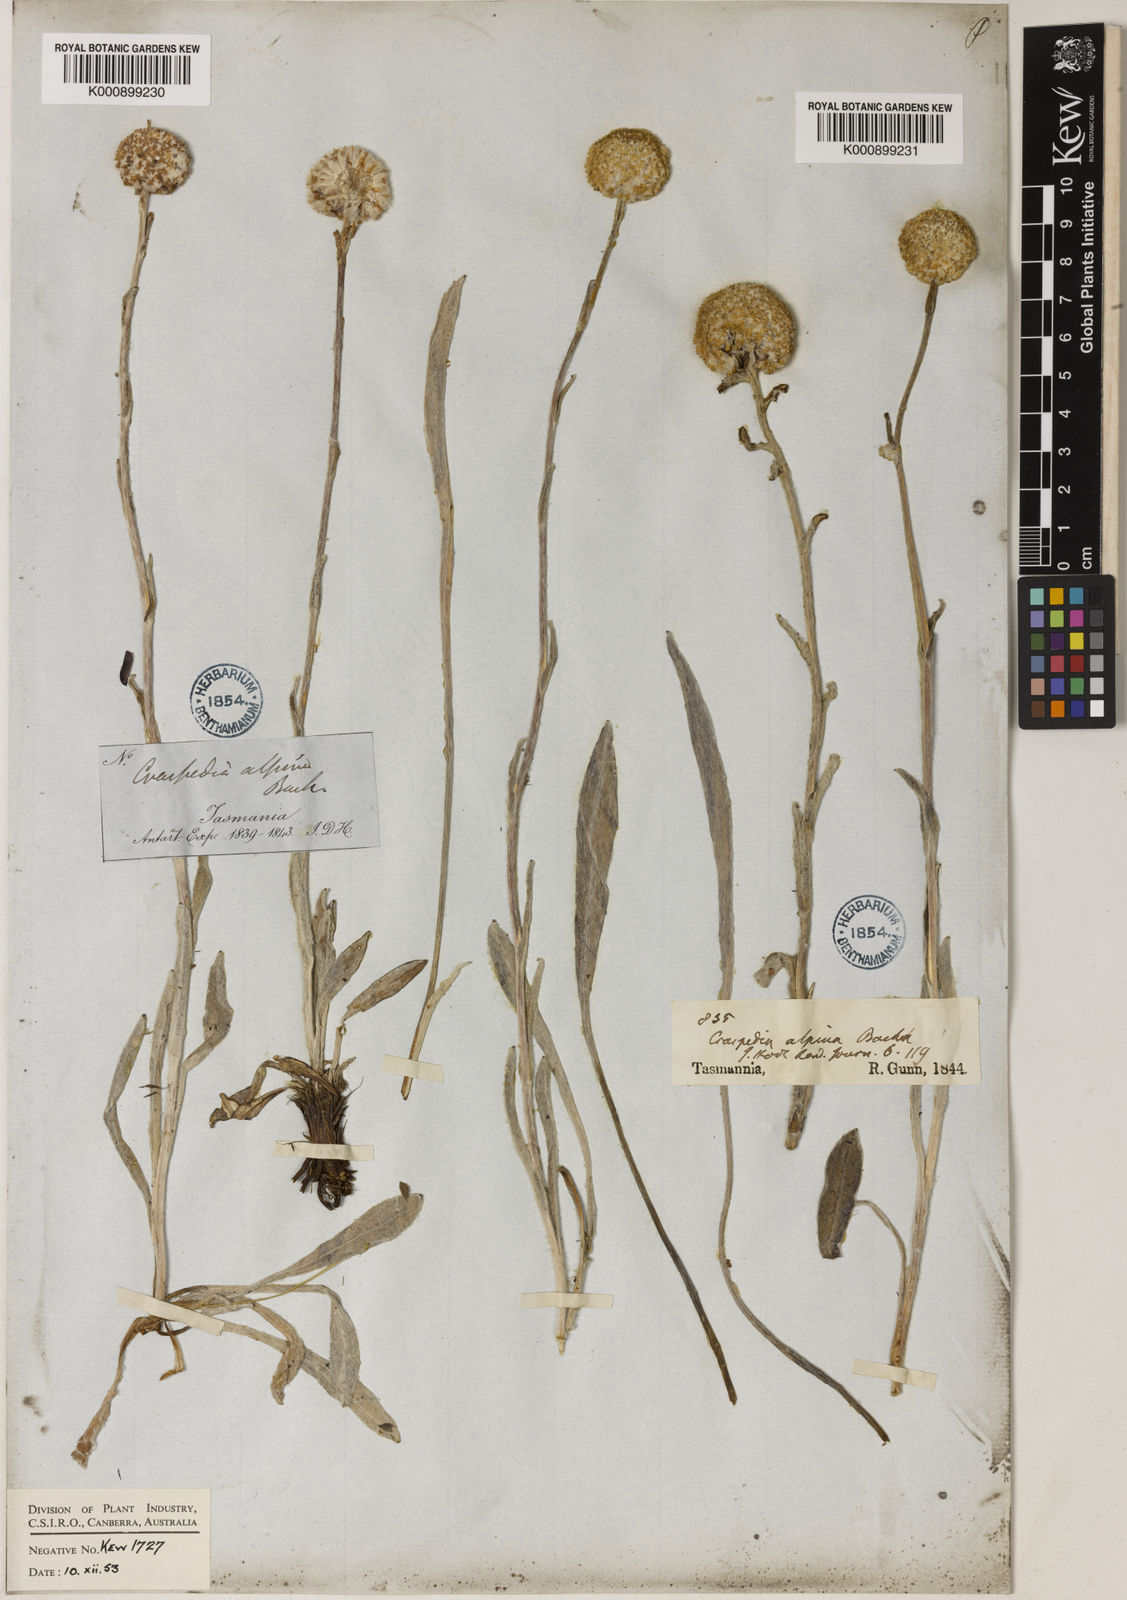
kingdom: Plantae
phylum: Tracheophyta
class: Magnoliopsida
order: Asterales
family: Asteraceae
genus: Craspedia
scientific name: Craspedia glauca
